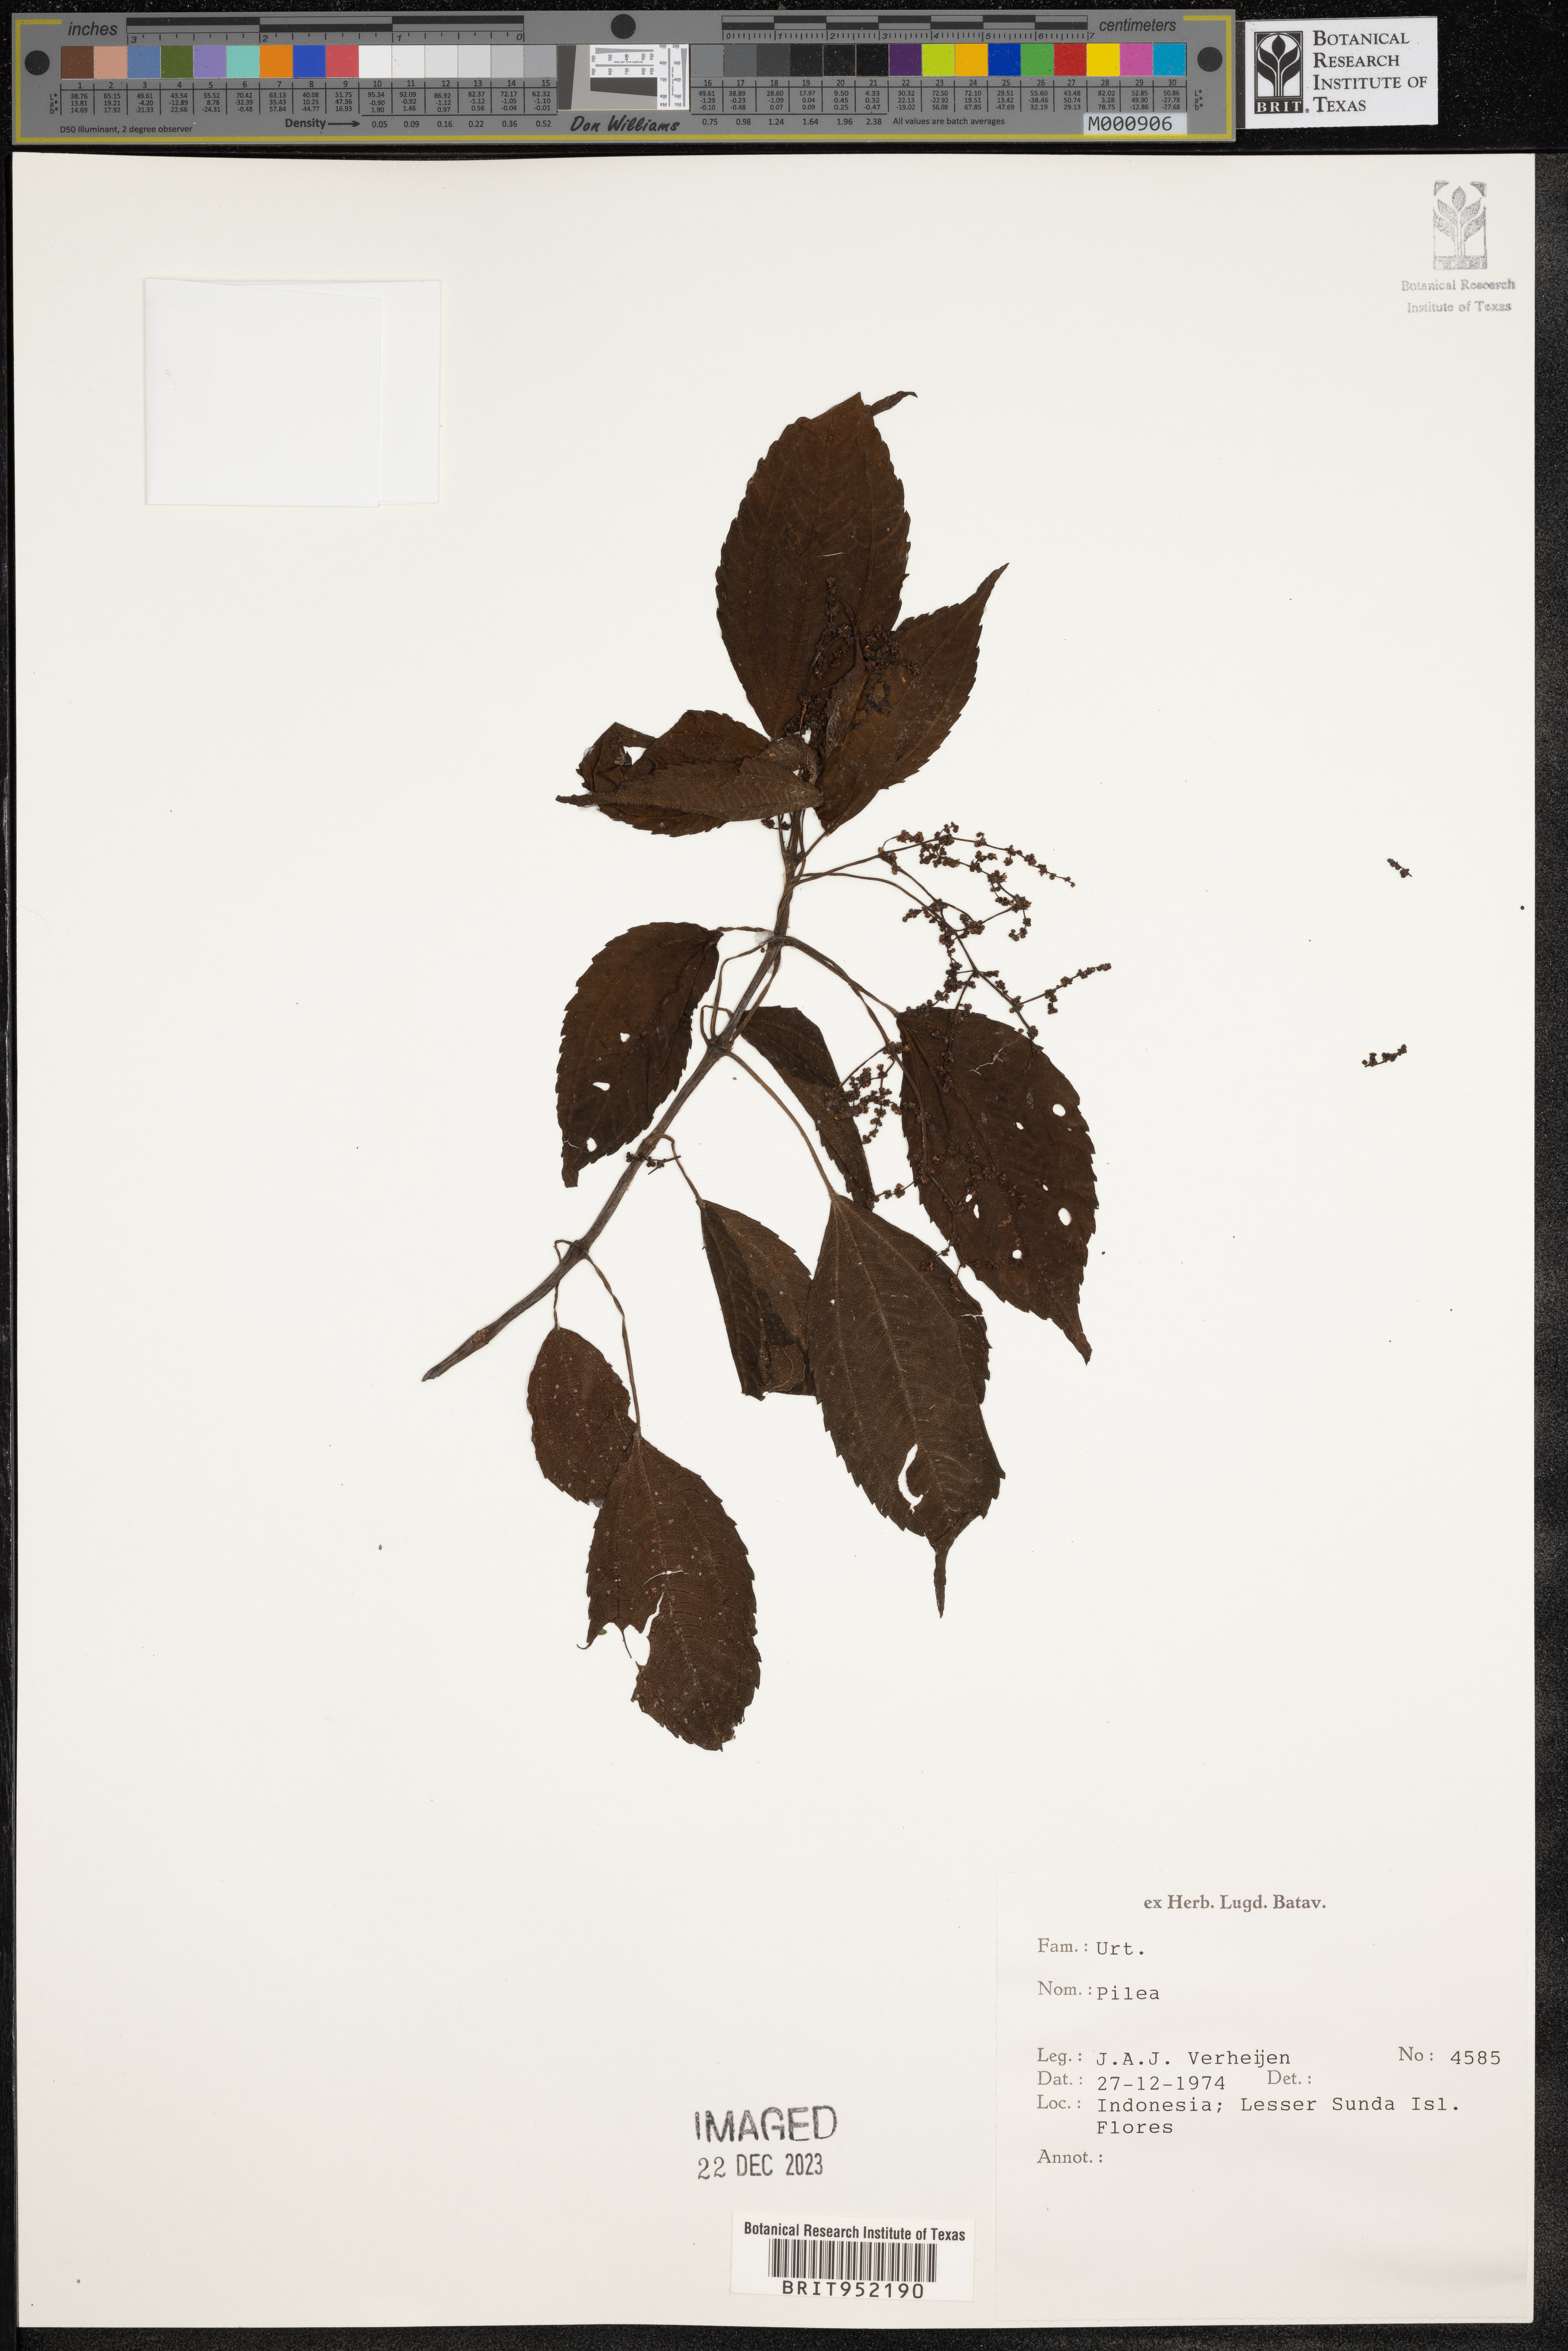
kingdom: Plantae
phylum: Tracheophyta
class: Magnoliopsida
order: Rosales
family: Urticaceae
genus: Pilea
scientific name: Pilea
